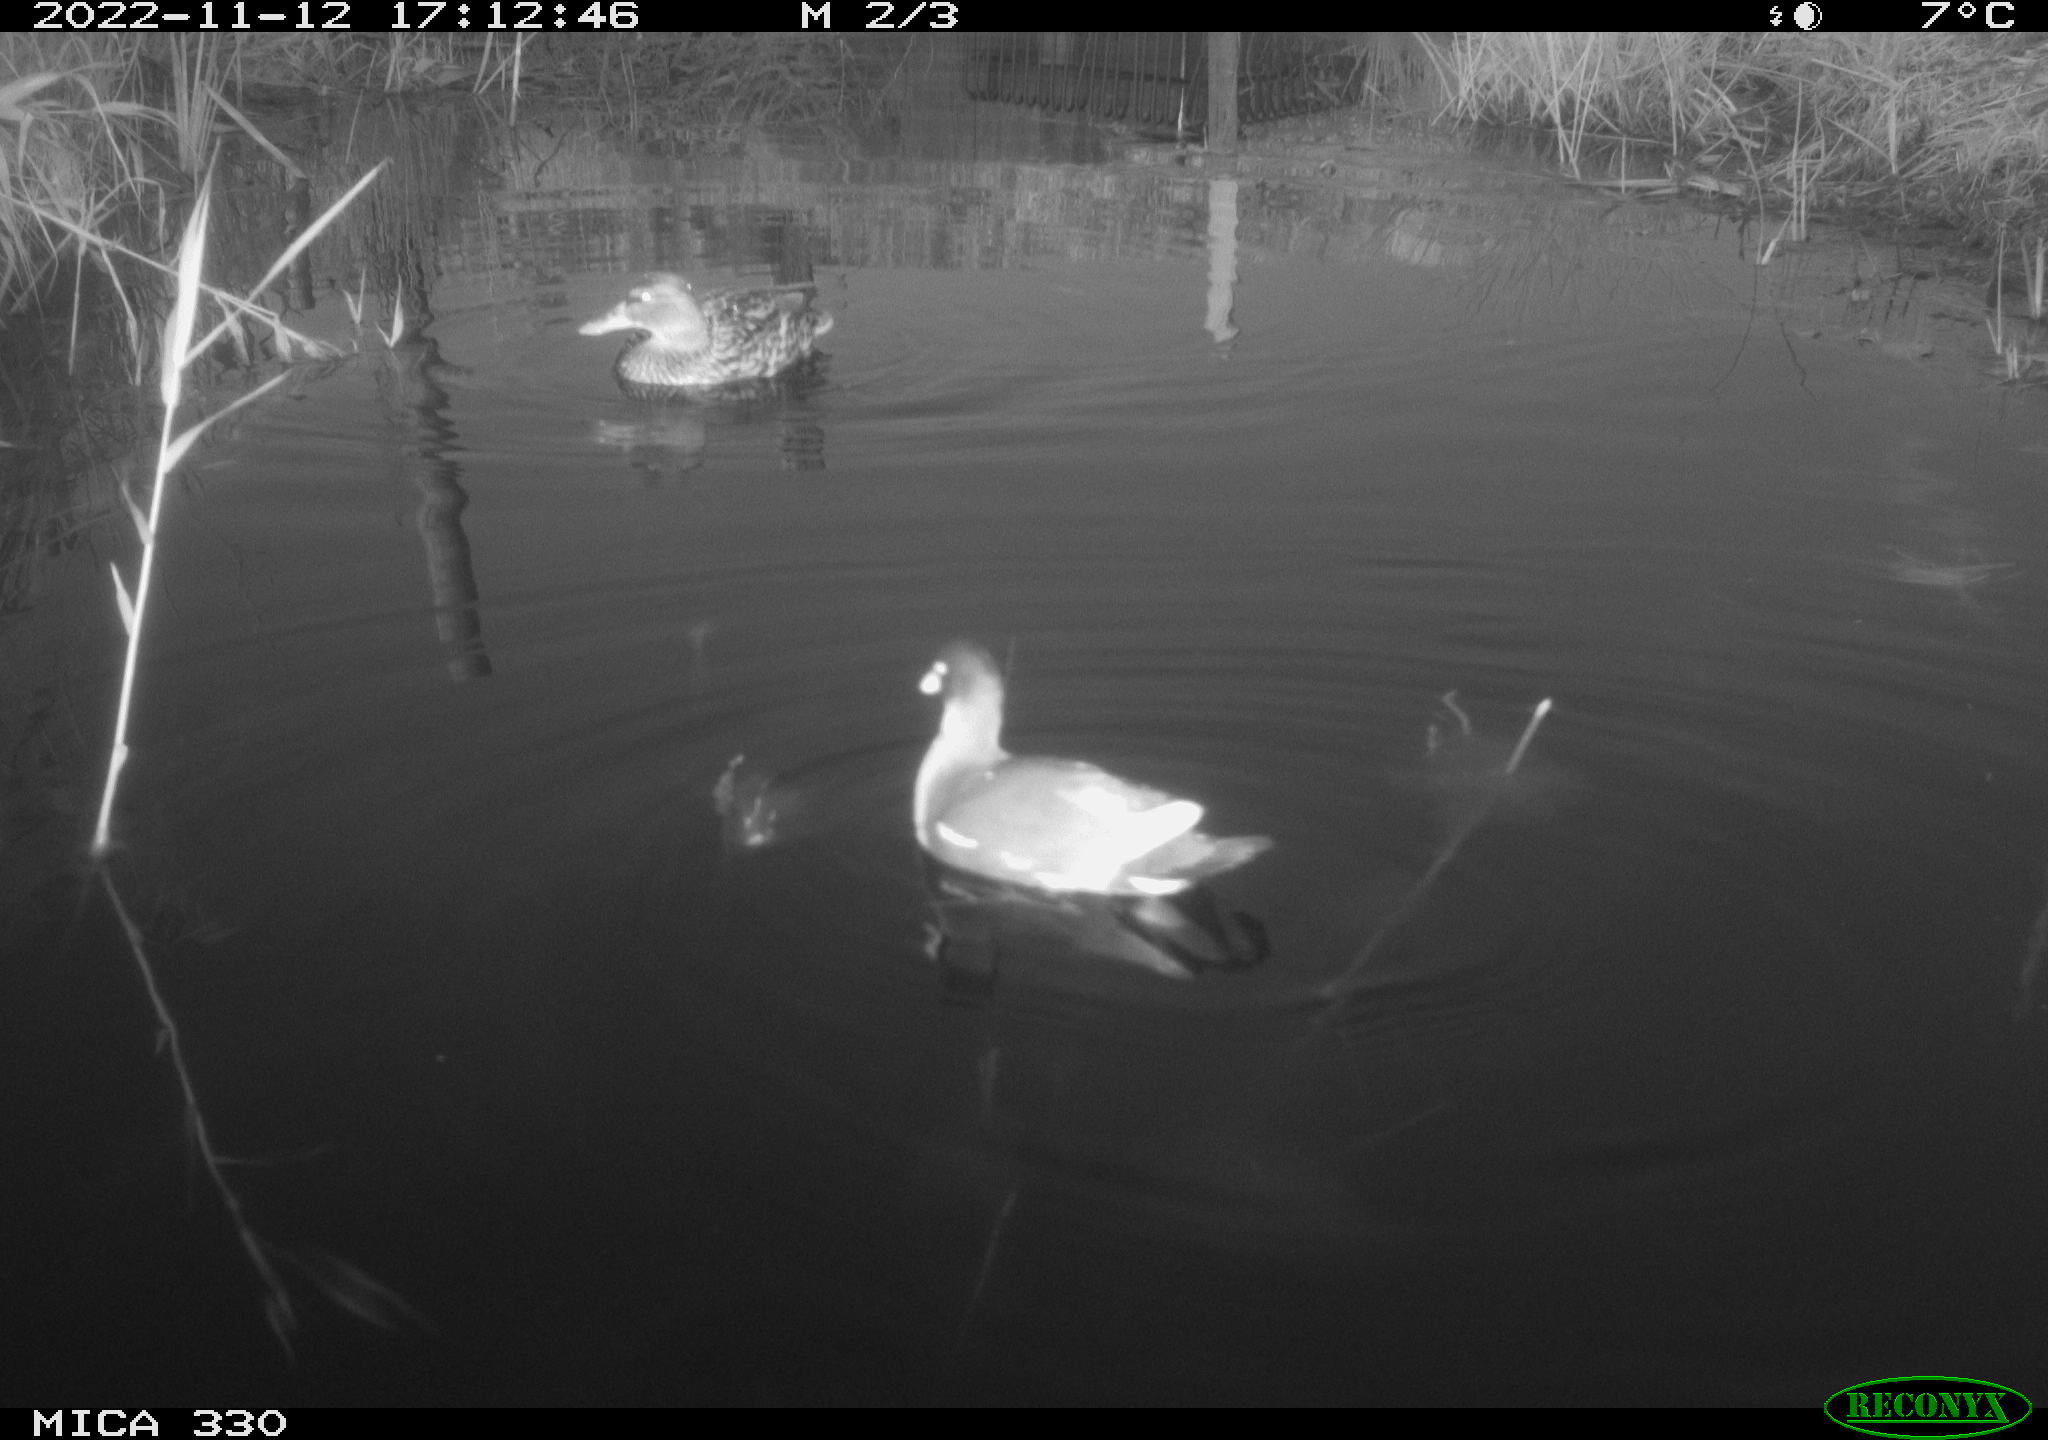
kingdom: Animalia
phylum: Chordata
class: Aves
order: Gruiformes
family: Rallidae
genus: Gallinula
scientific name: Gallinula chloropus
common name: Common moorhen
